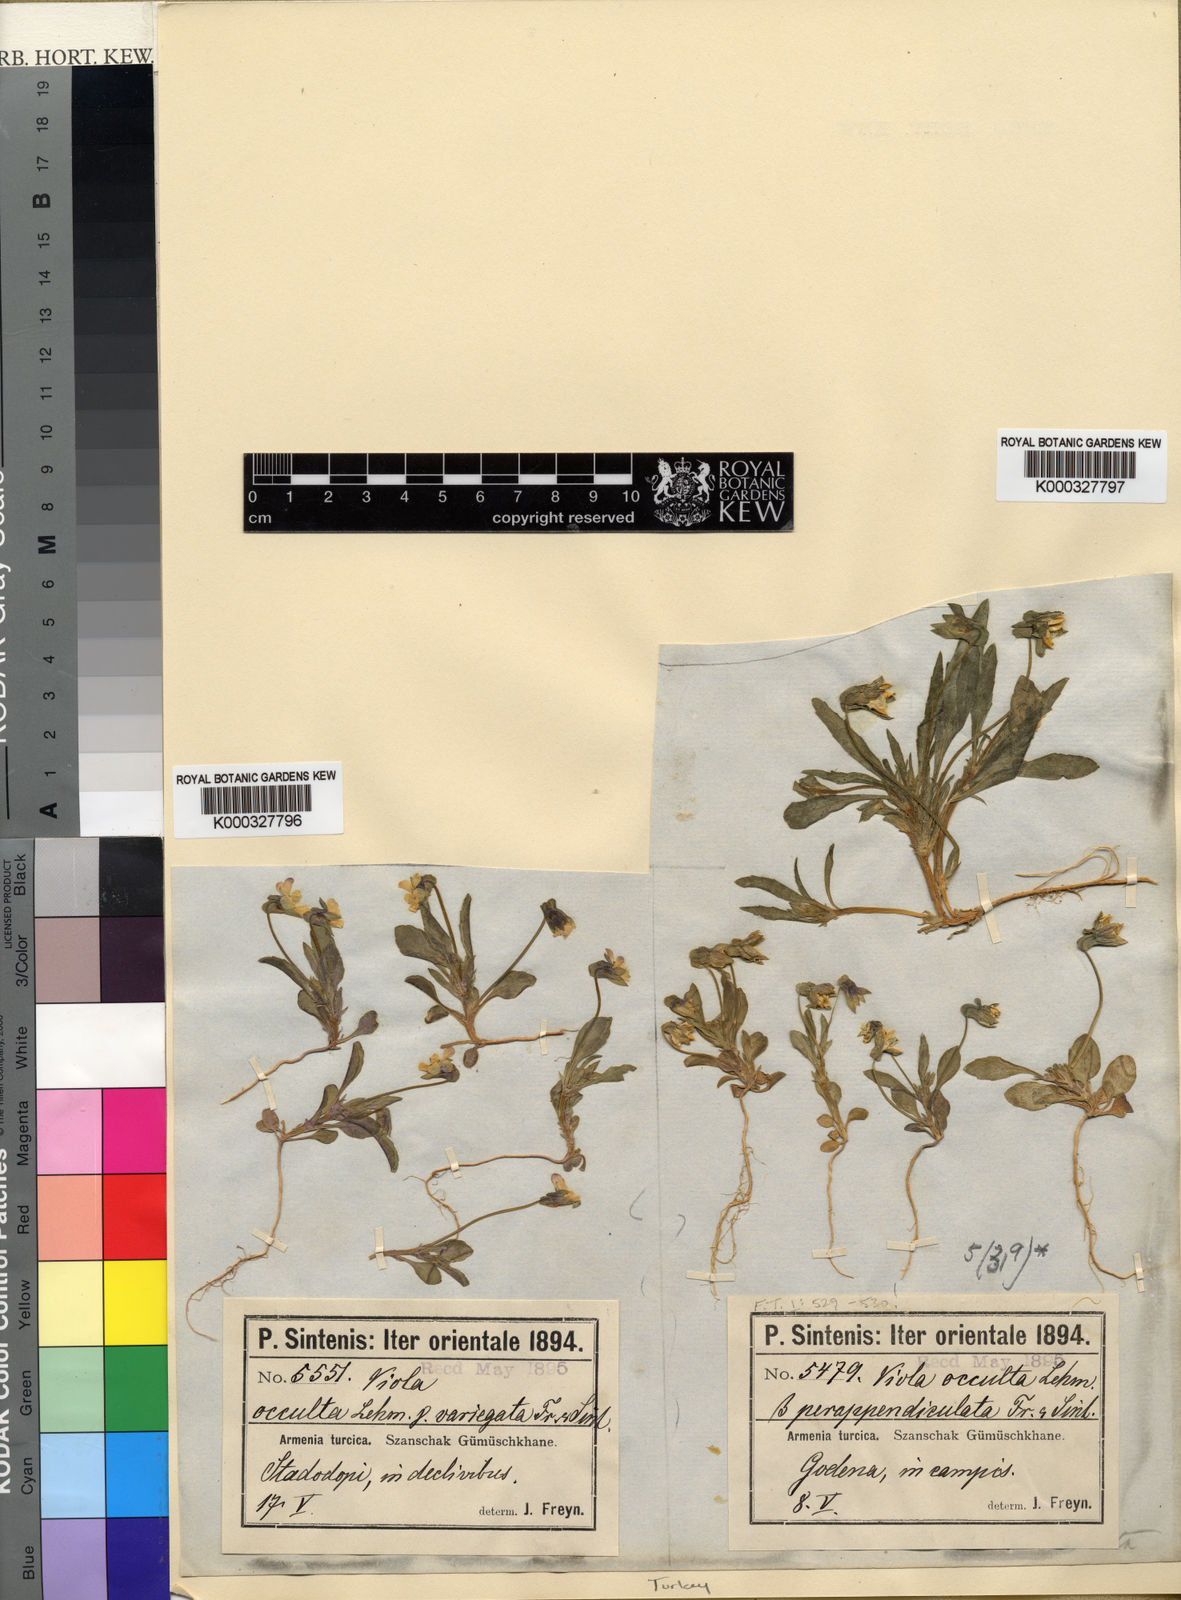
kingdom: Plantae
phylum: Tracheophyta
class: Magnoliopsida
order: Malpighiales
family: Violaceae
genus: Viola
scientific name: Viola occulta
